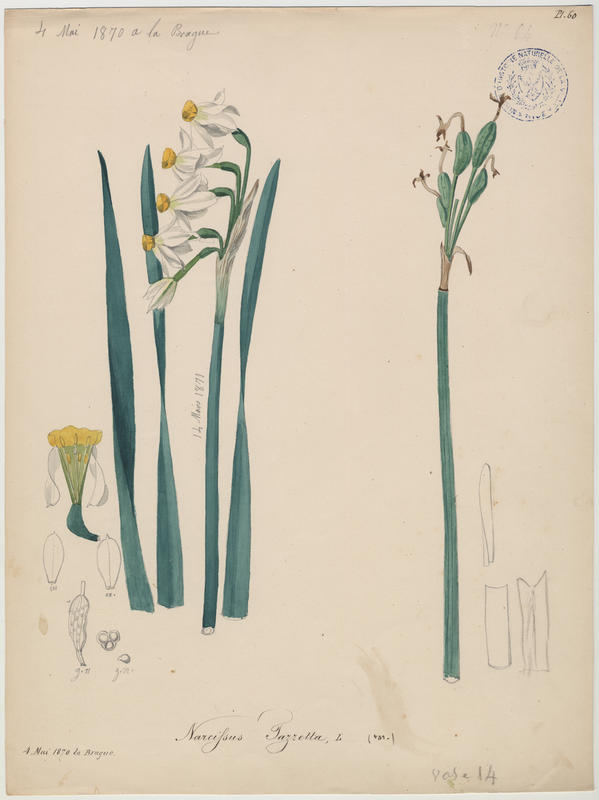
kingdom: Plantae
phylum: Tracheophyta
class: Liliopsida
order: Asparagales
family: Amaryllidaceae
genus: Narcissus
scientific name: Narcissus tazetta
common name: Bunch-flowered daffodil
